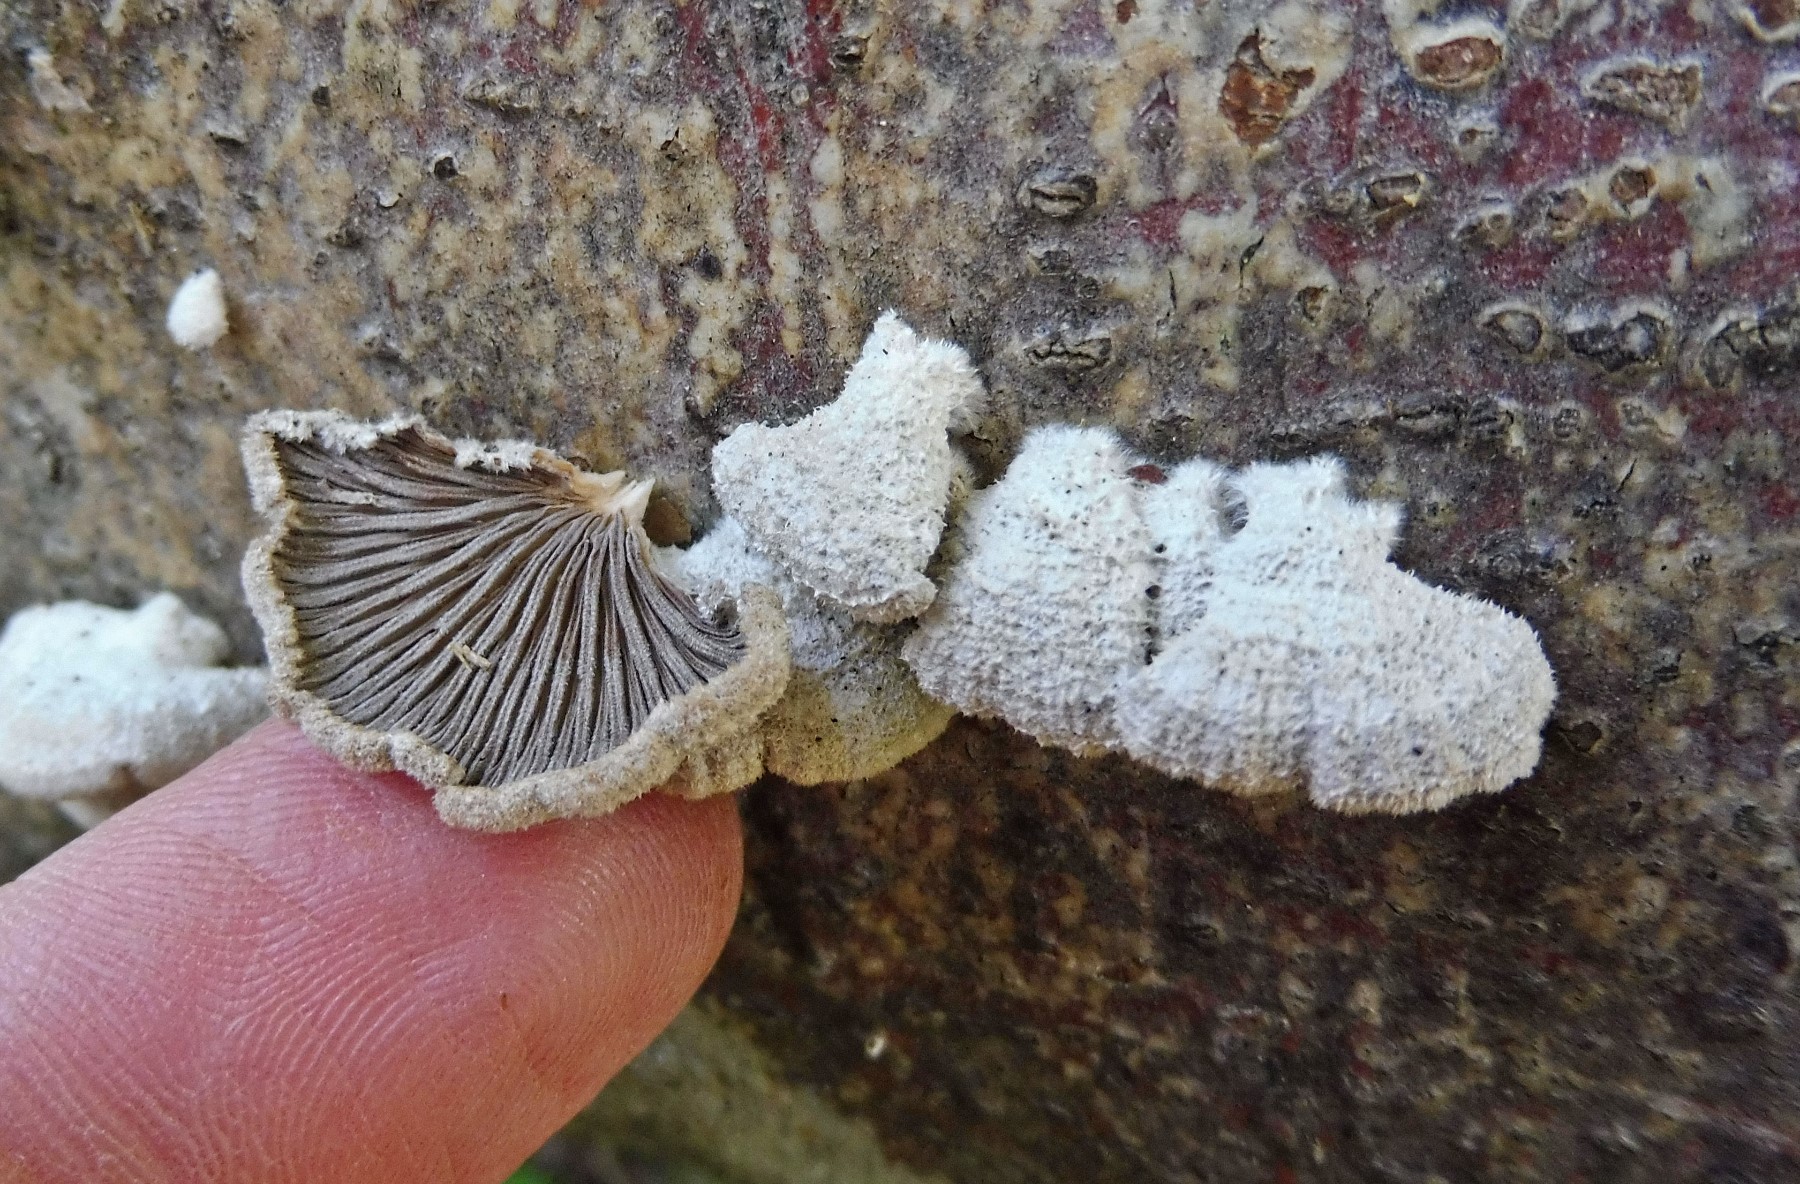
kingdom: Fungi
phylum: Basidiomycota
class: Agaricomycetes
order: Agaricales
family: Schizophyllaceae
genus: Schizophyllum
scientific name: Schizophyllum commune
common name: kløvblad
